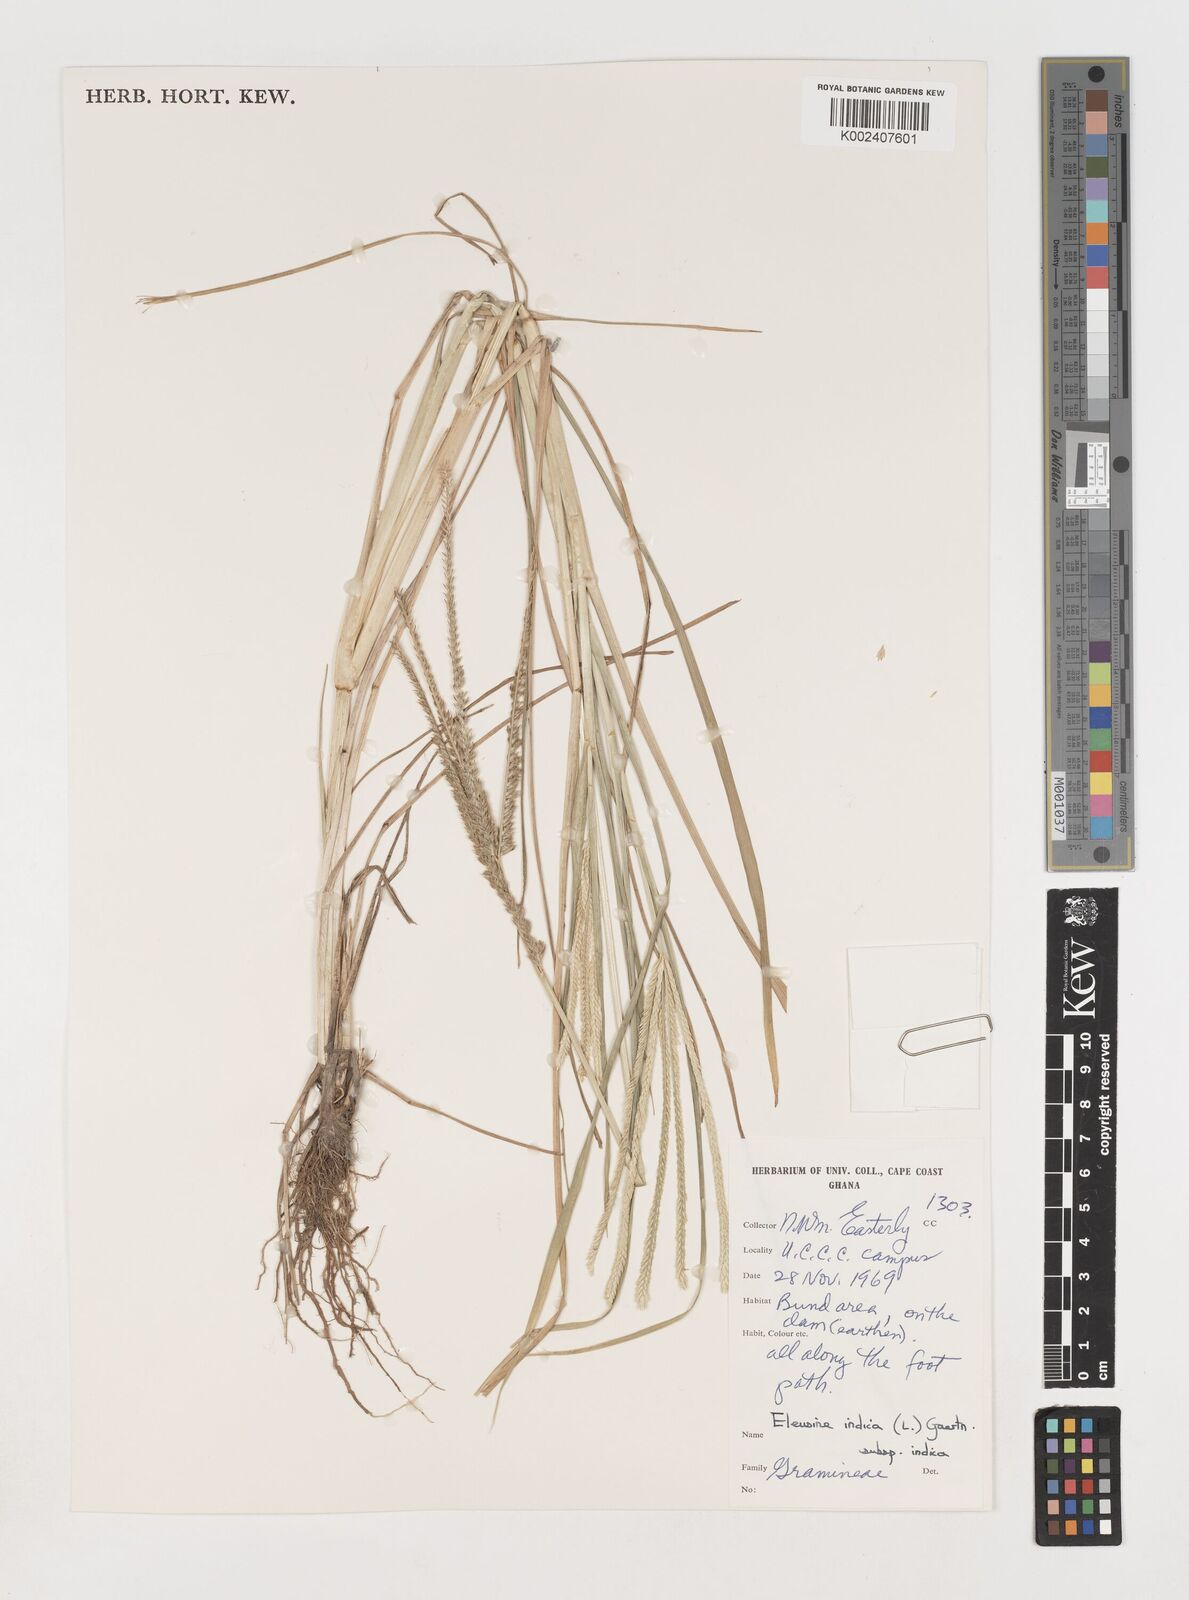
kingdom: Plantae
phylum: Tracheophyta
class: Liliopsida
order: Poales
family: Poaceae
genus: Eleusine
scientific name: Eleusine indica
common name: Yard-grass
